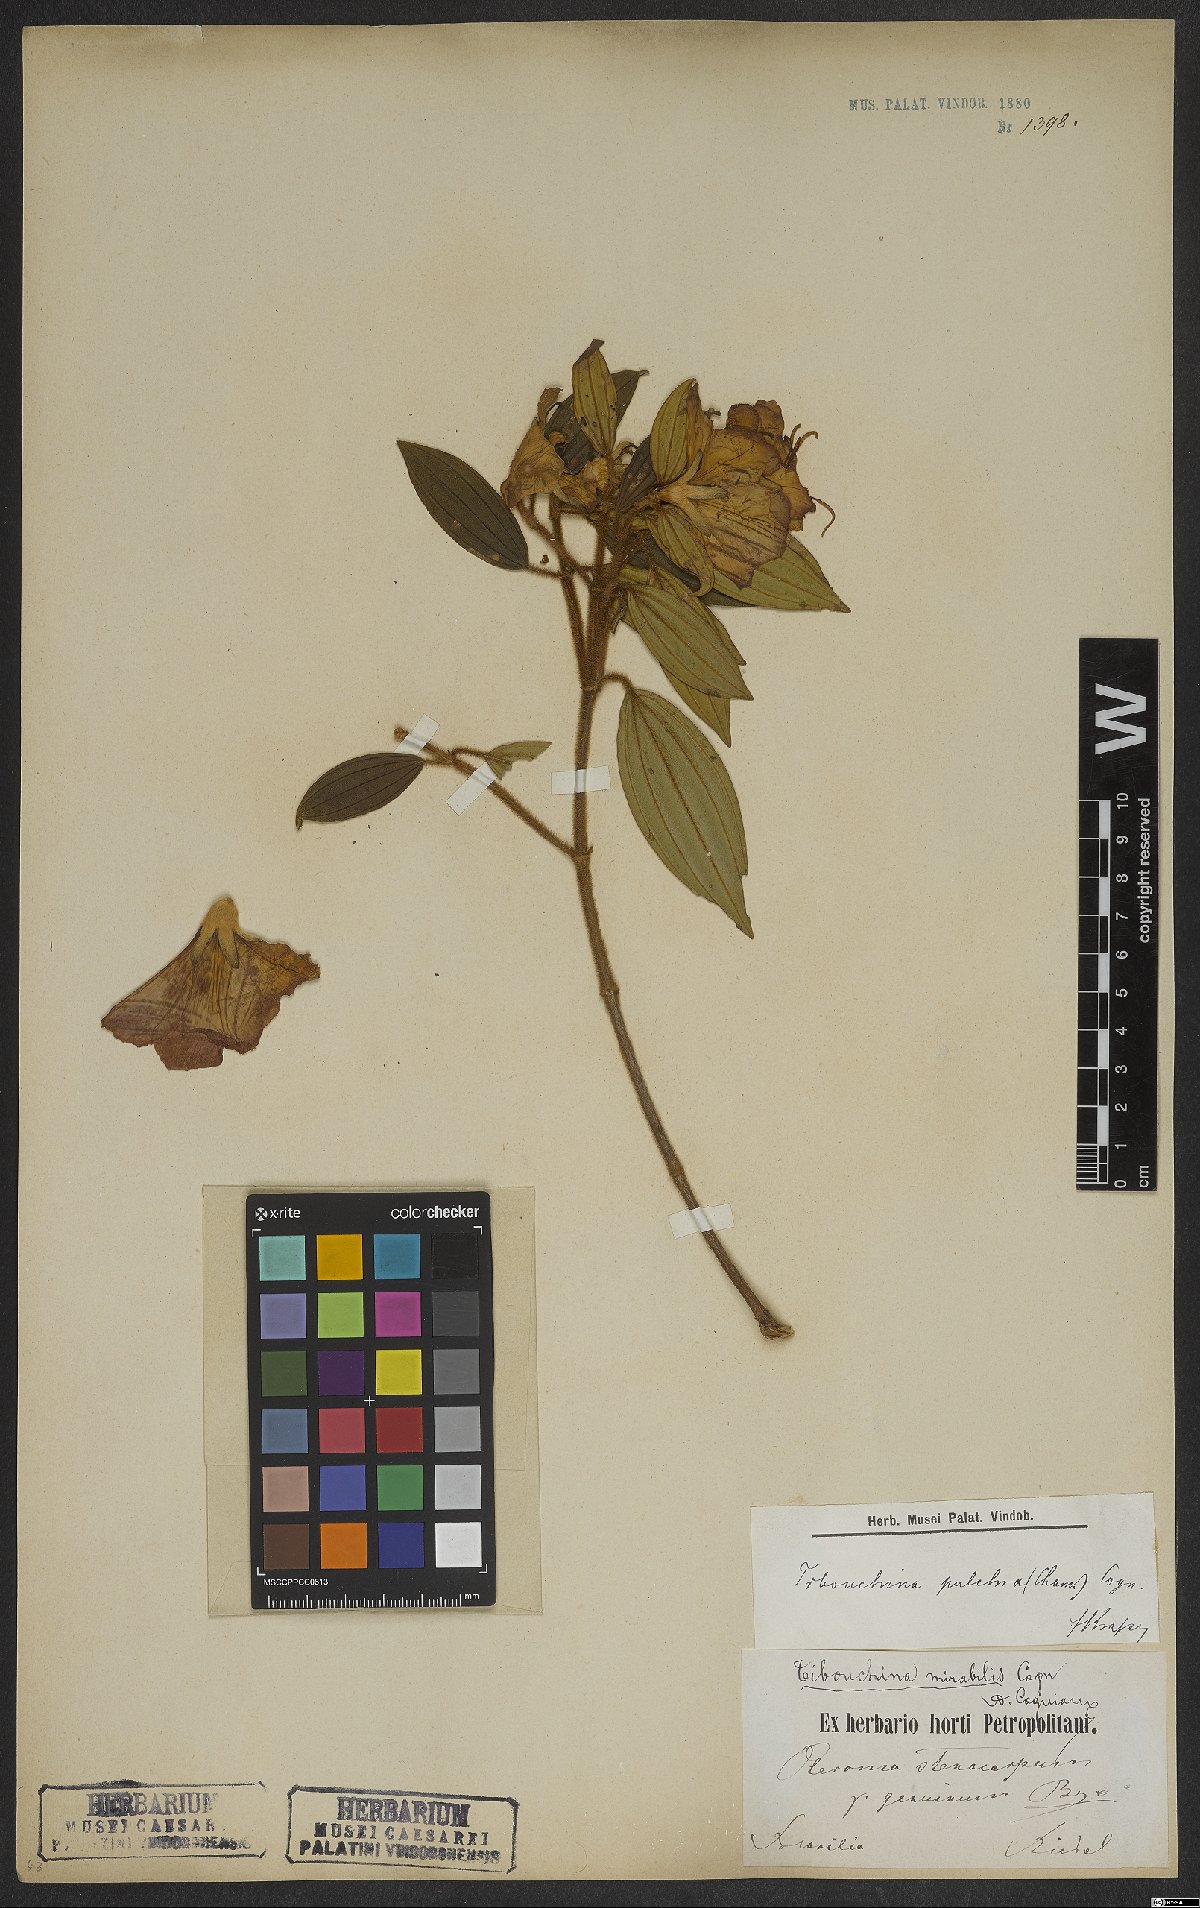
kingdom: Plantae
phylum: Tracheophyta
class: Magnoliopsida
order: Myrtales
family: Melastomataceae
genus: Pleroma
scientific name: Pleroma raddianum
